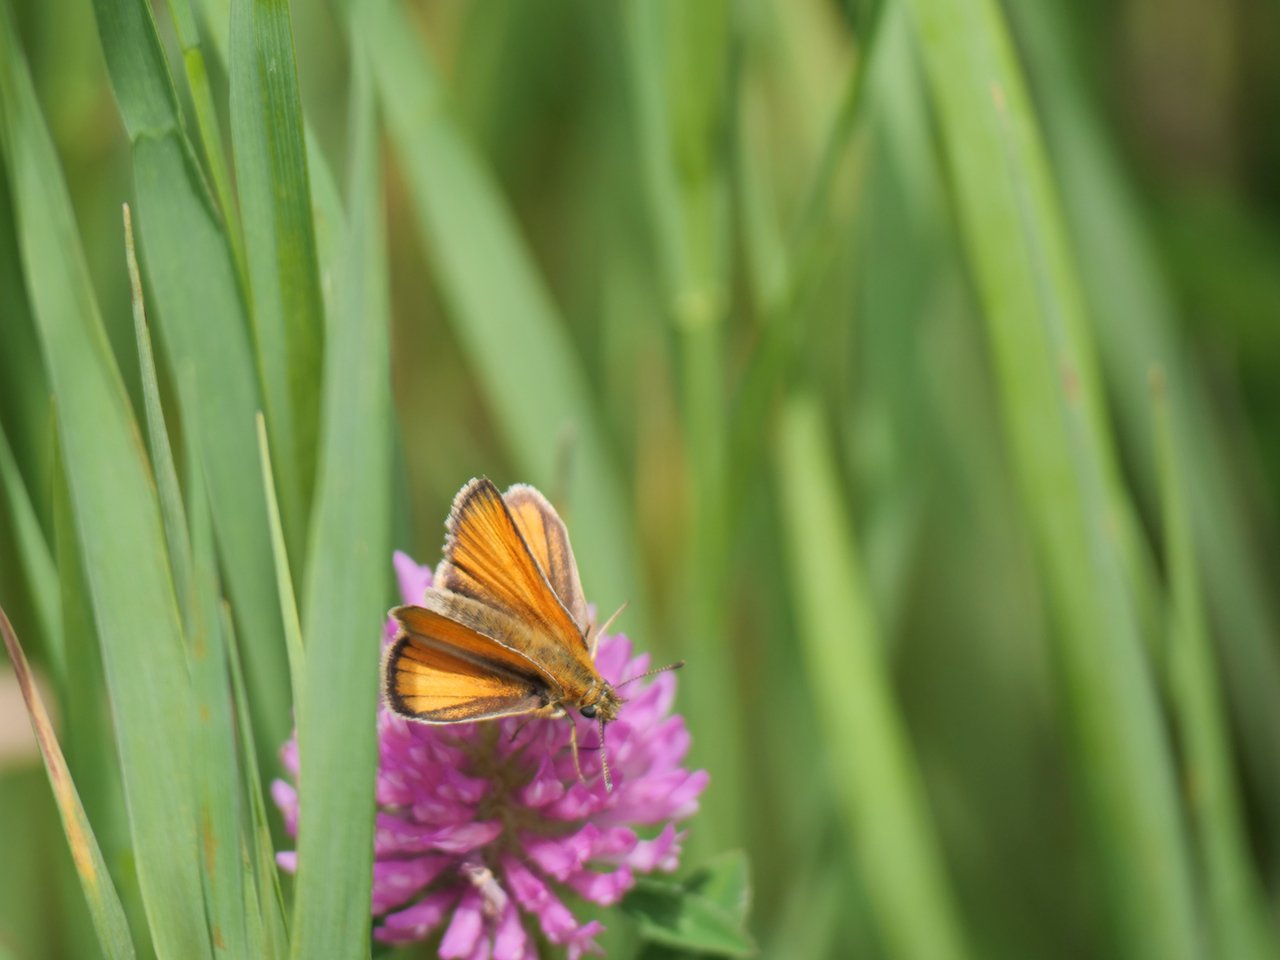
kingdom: Animalia
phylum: Arthropoda
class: Insecta
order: Lepidoptera
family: Hesperiidae
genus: Thymelicus
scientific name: Thymelicus lineola
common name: European Skipper
